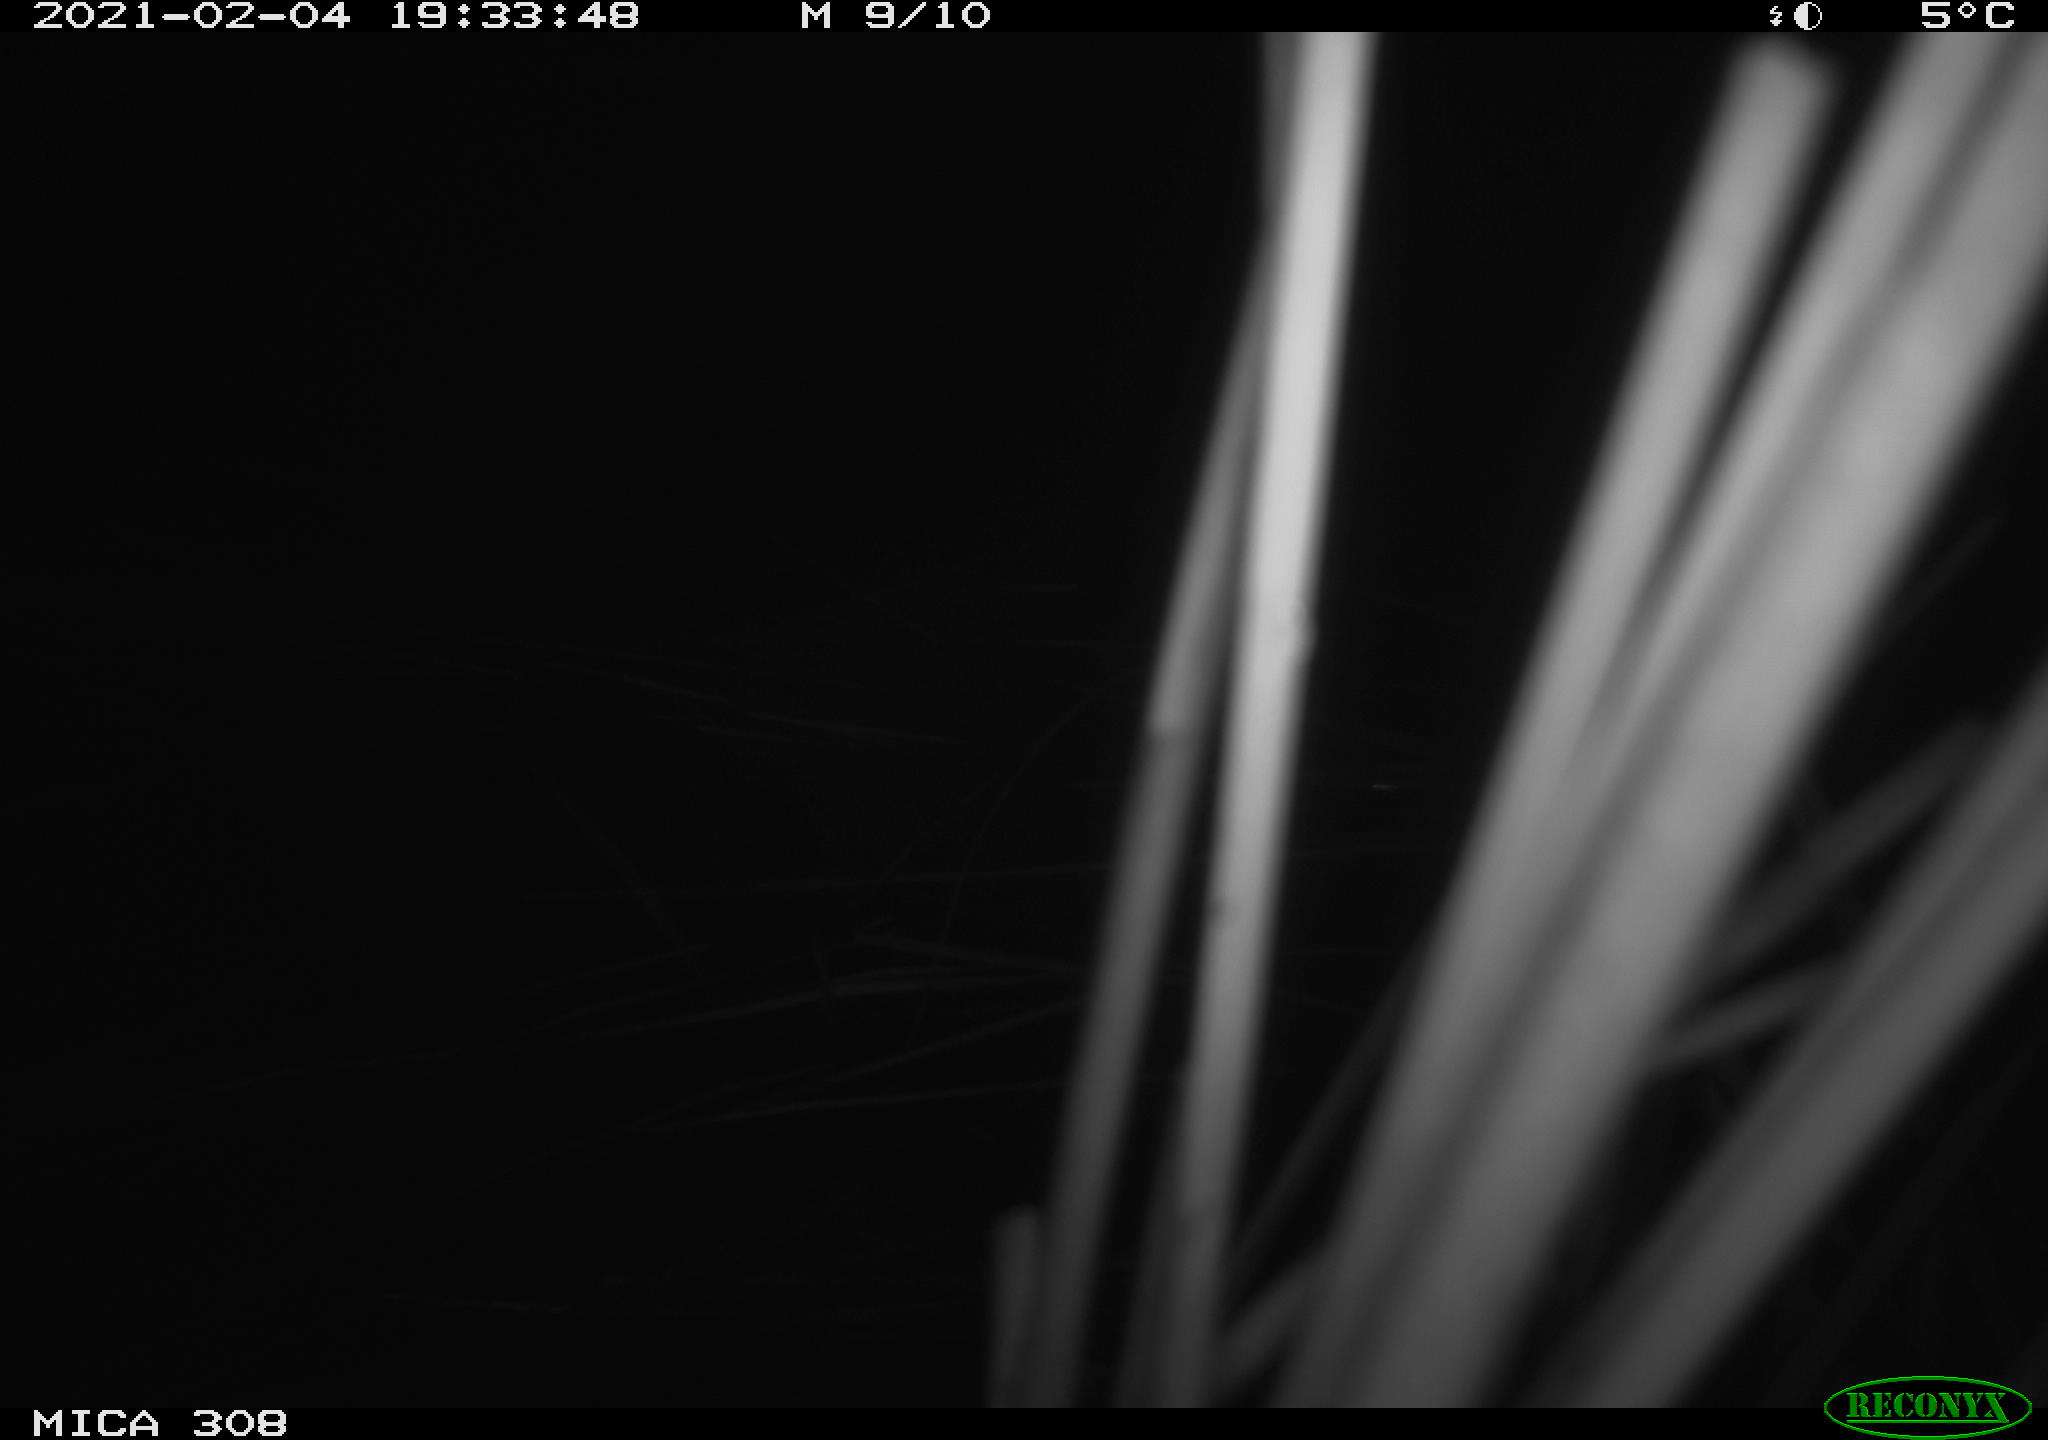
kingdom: Animalia
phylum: Chordata
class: Mammalia
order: Rodentia
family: Cricetidae
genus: Ondatra
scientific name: Ondatra zibethicus
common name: Muskrat
